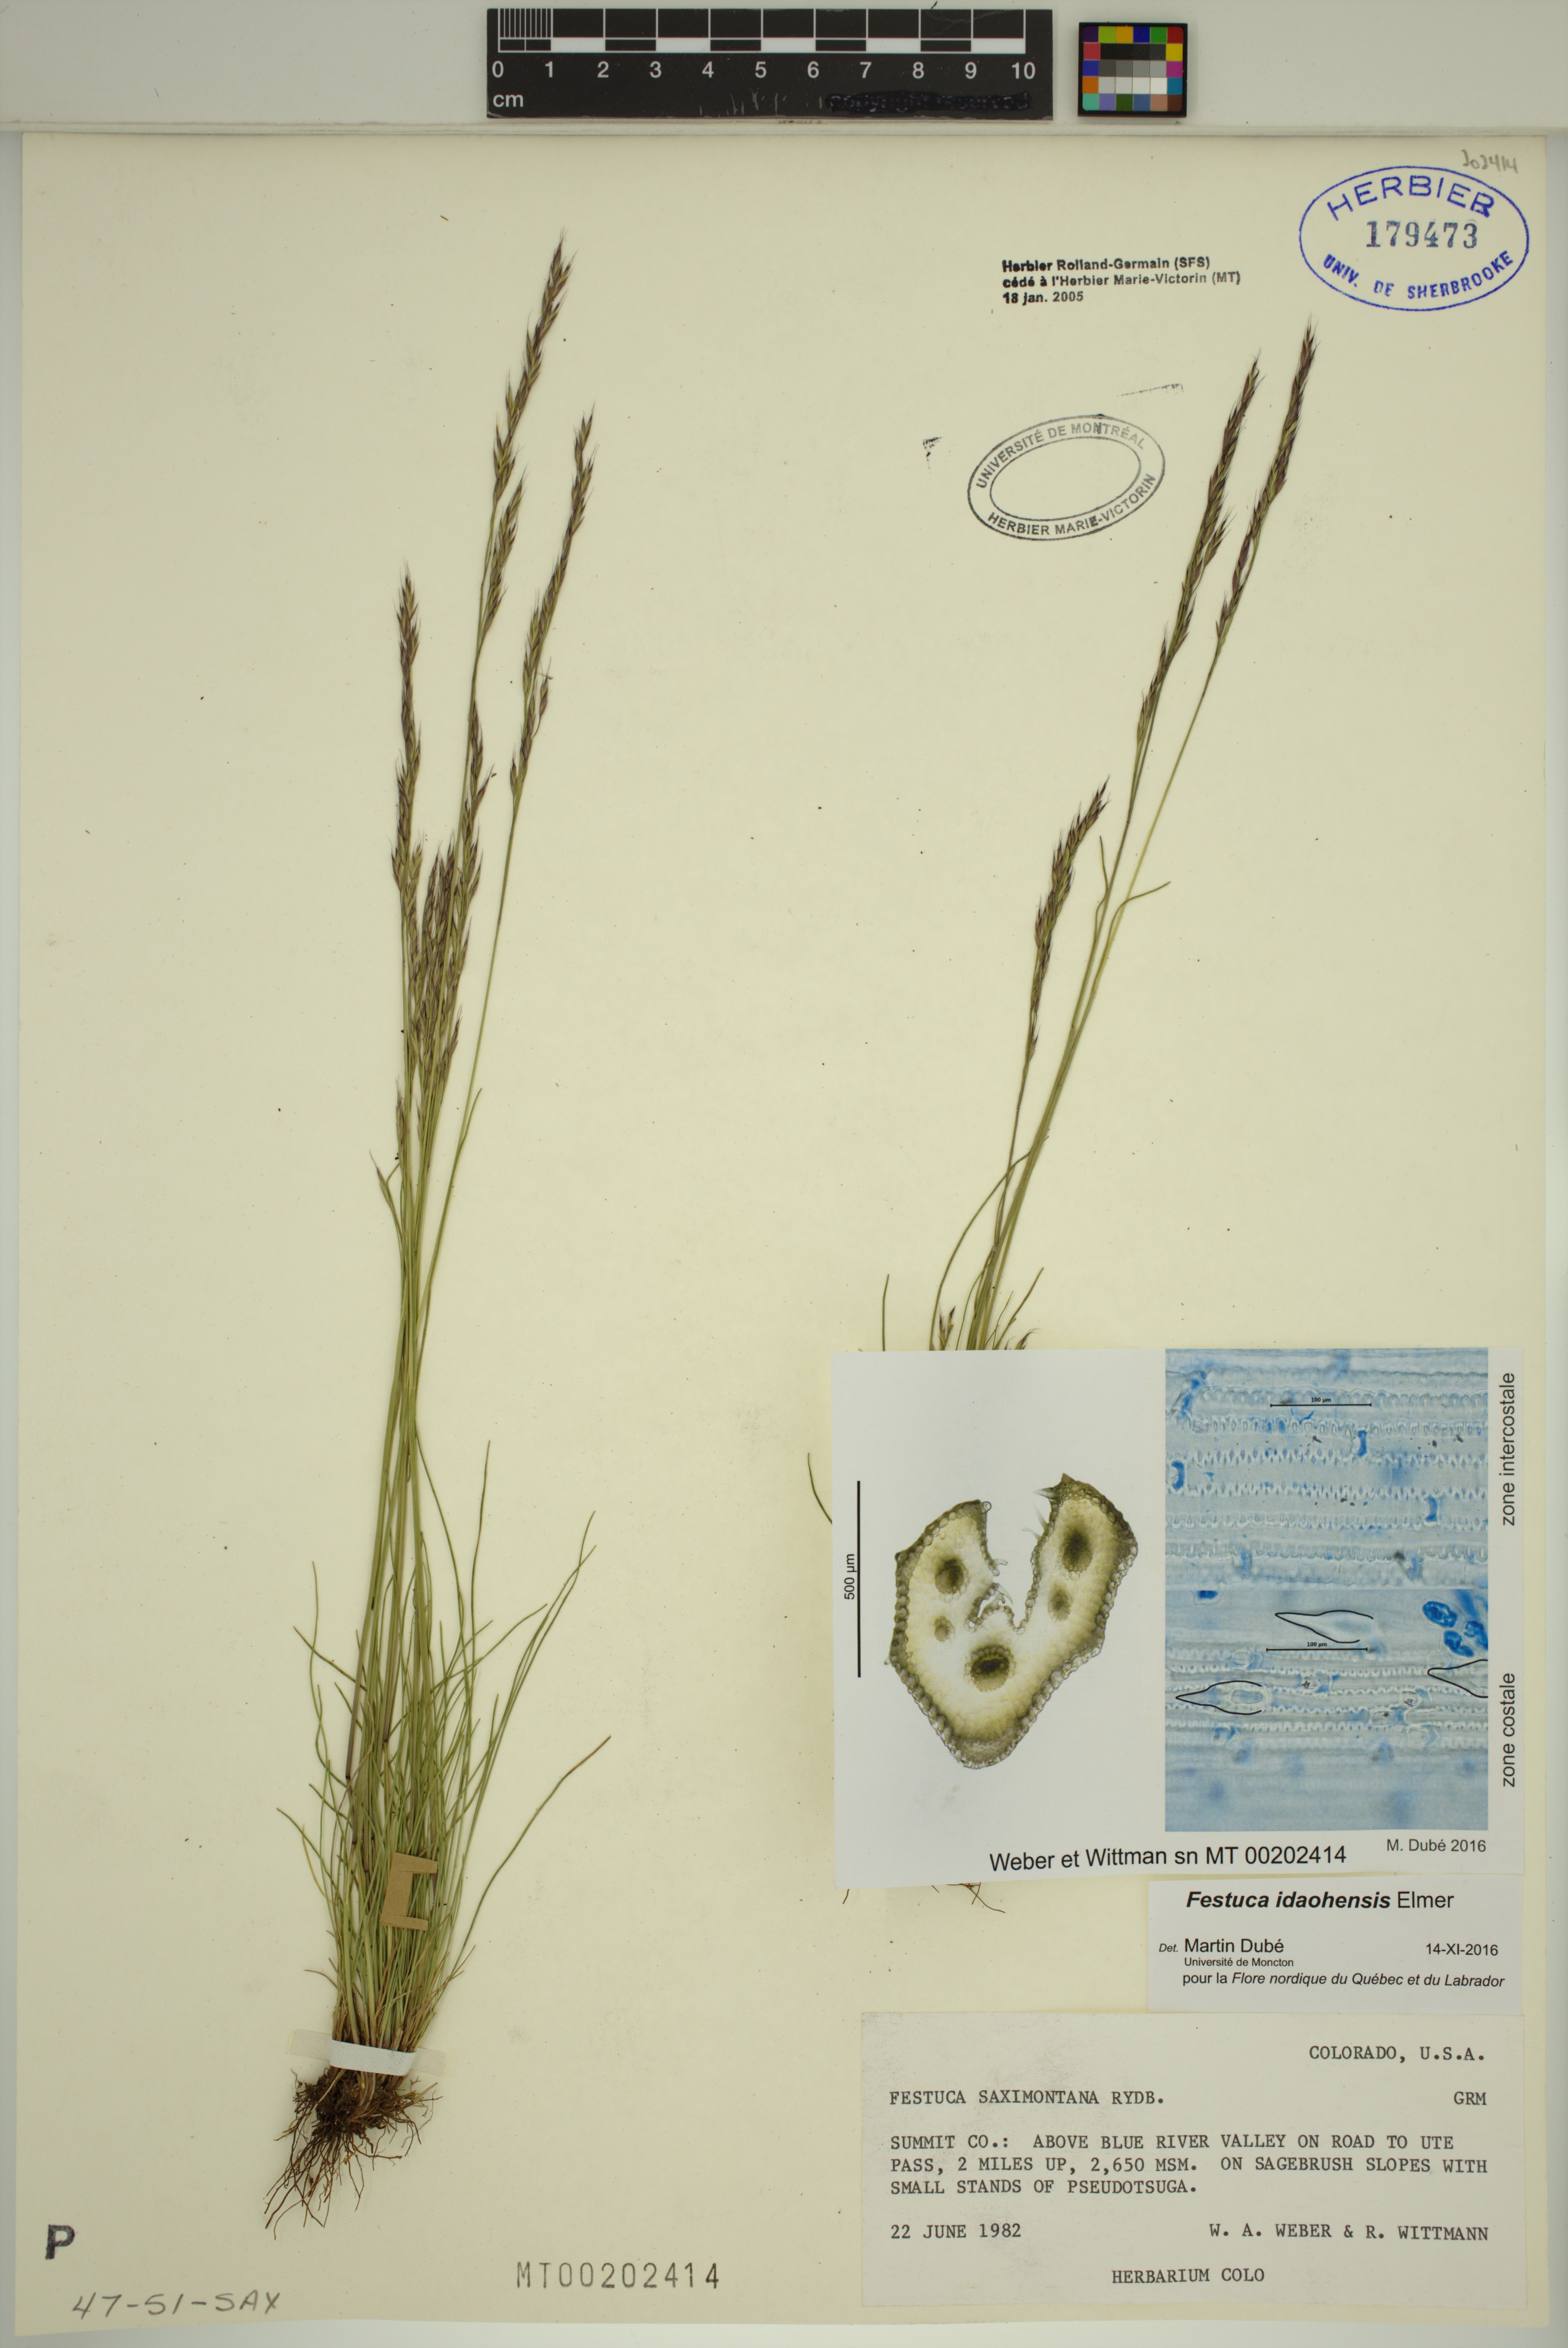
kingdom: Plantae
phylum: Tracheophyta
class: Liliopsida
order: Poales
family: Poaceae
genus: Festuca
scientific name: Festuca idahoensis
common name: Idaho fescue
